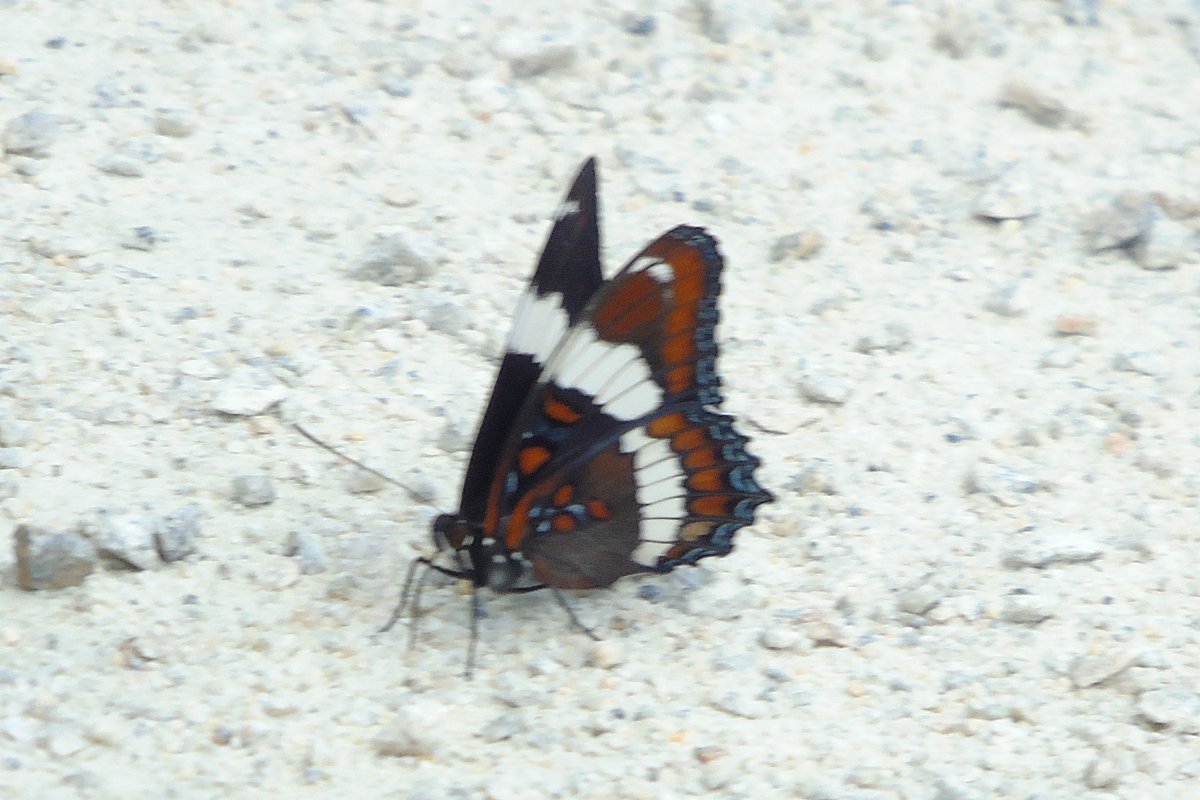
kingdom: Animalia
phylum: Arthropoda
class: Insecta
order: Lepidoptera
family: Nymphalidae
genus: Limenitis
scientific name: Limenitis arthemis
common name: Red-spotted Admiral
